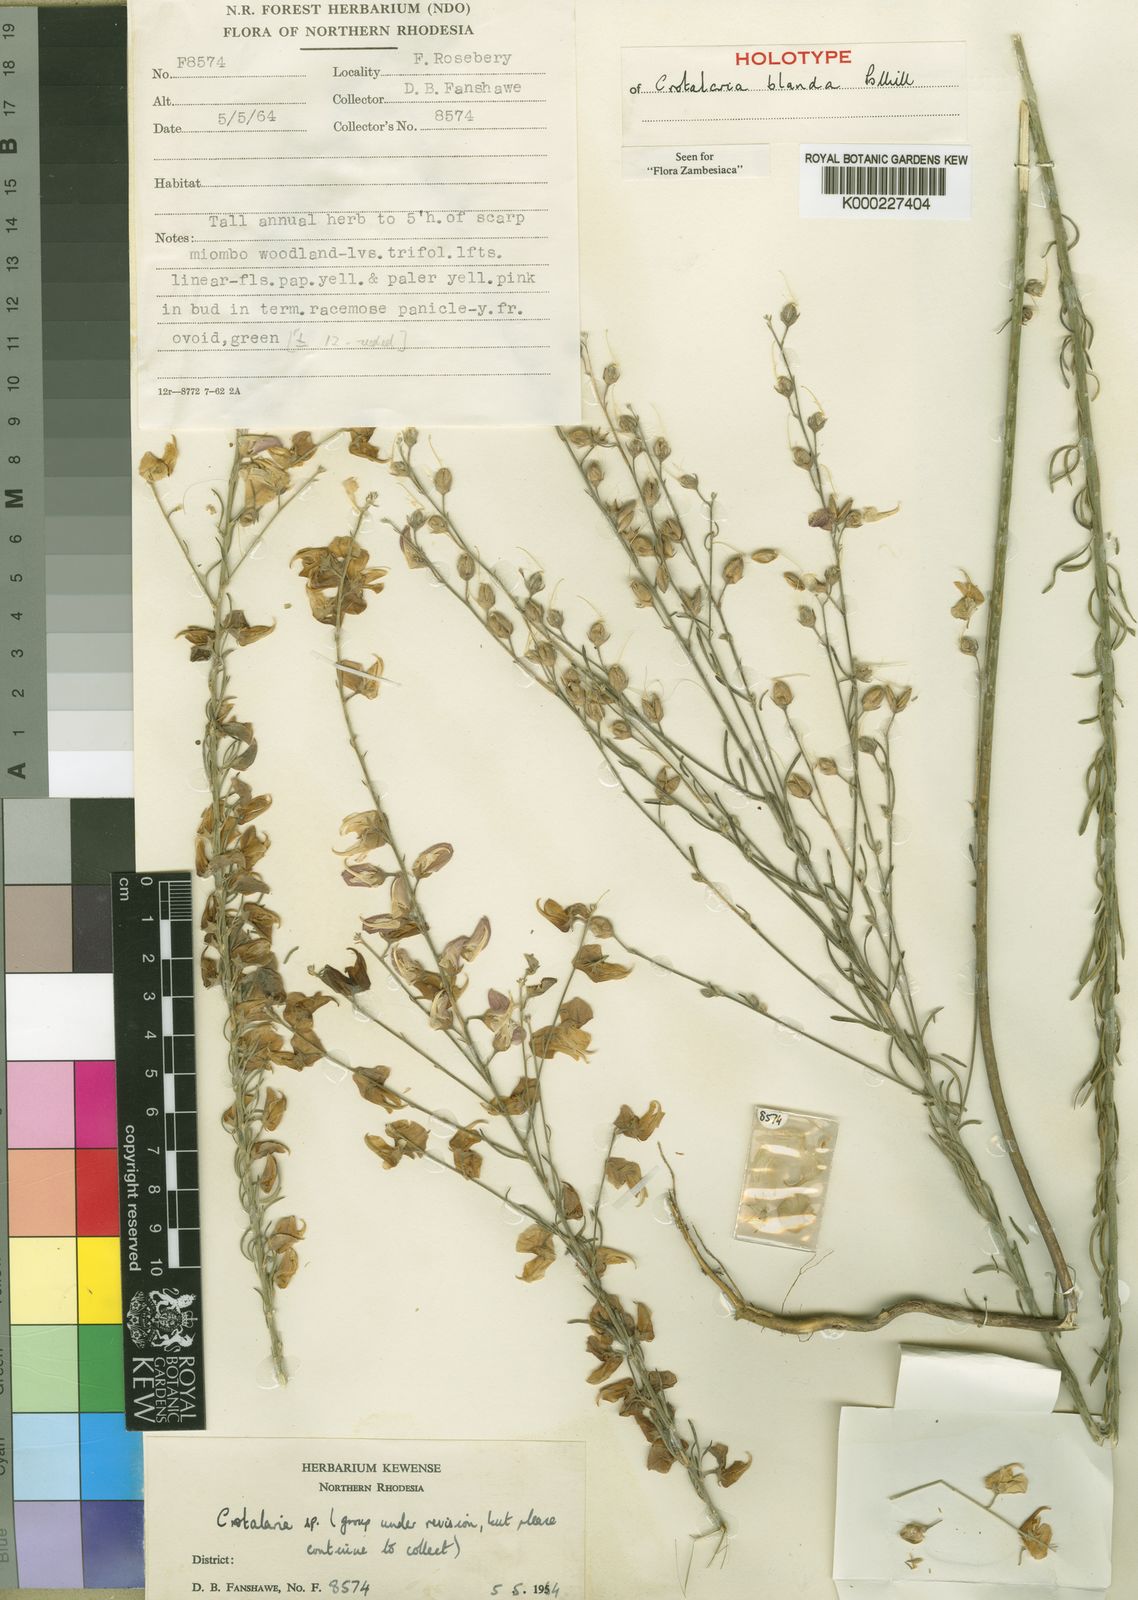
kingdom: Plantae
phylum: Tracheophyta
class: Magnoliopsida
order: Fabales
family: Fabaceae
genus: Crotalaria
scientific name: Crotalaria blanda
